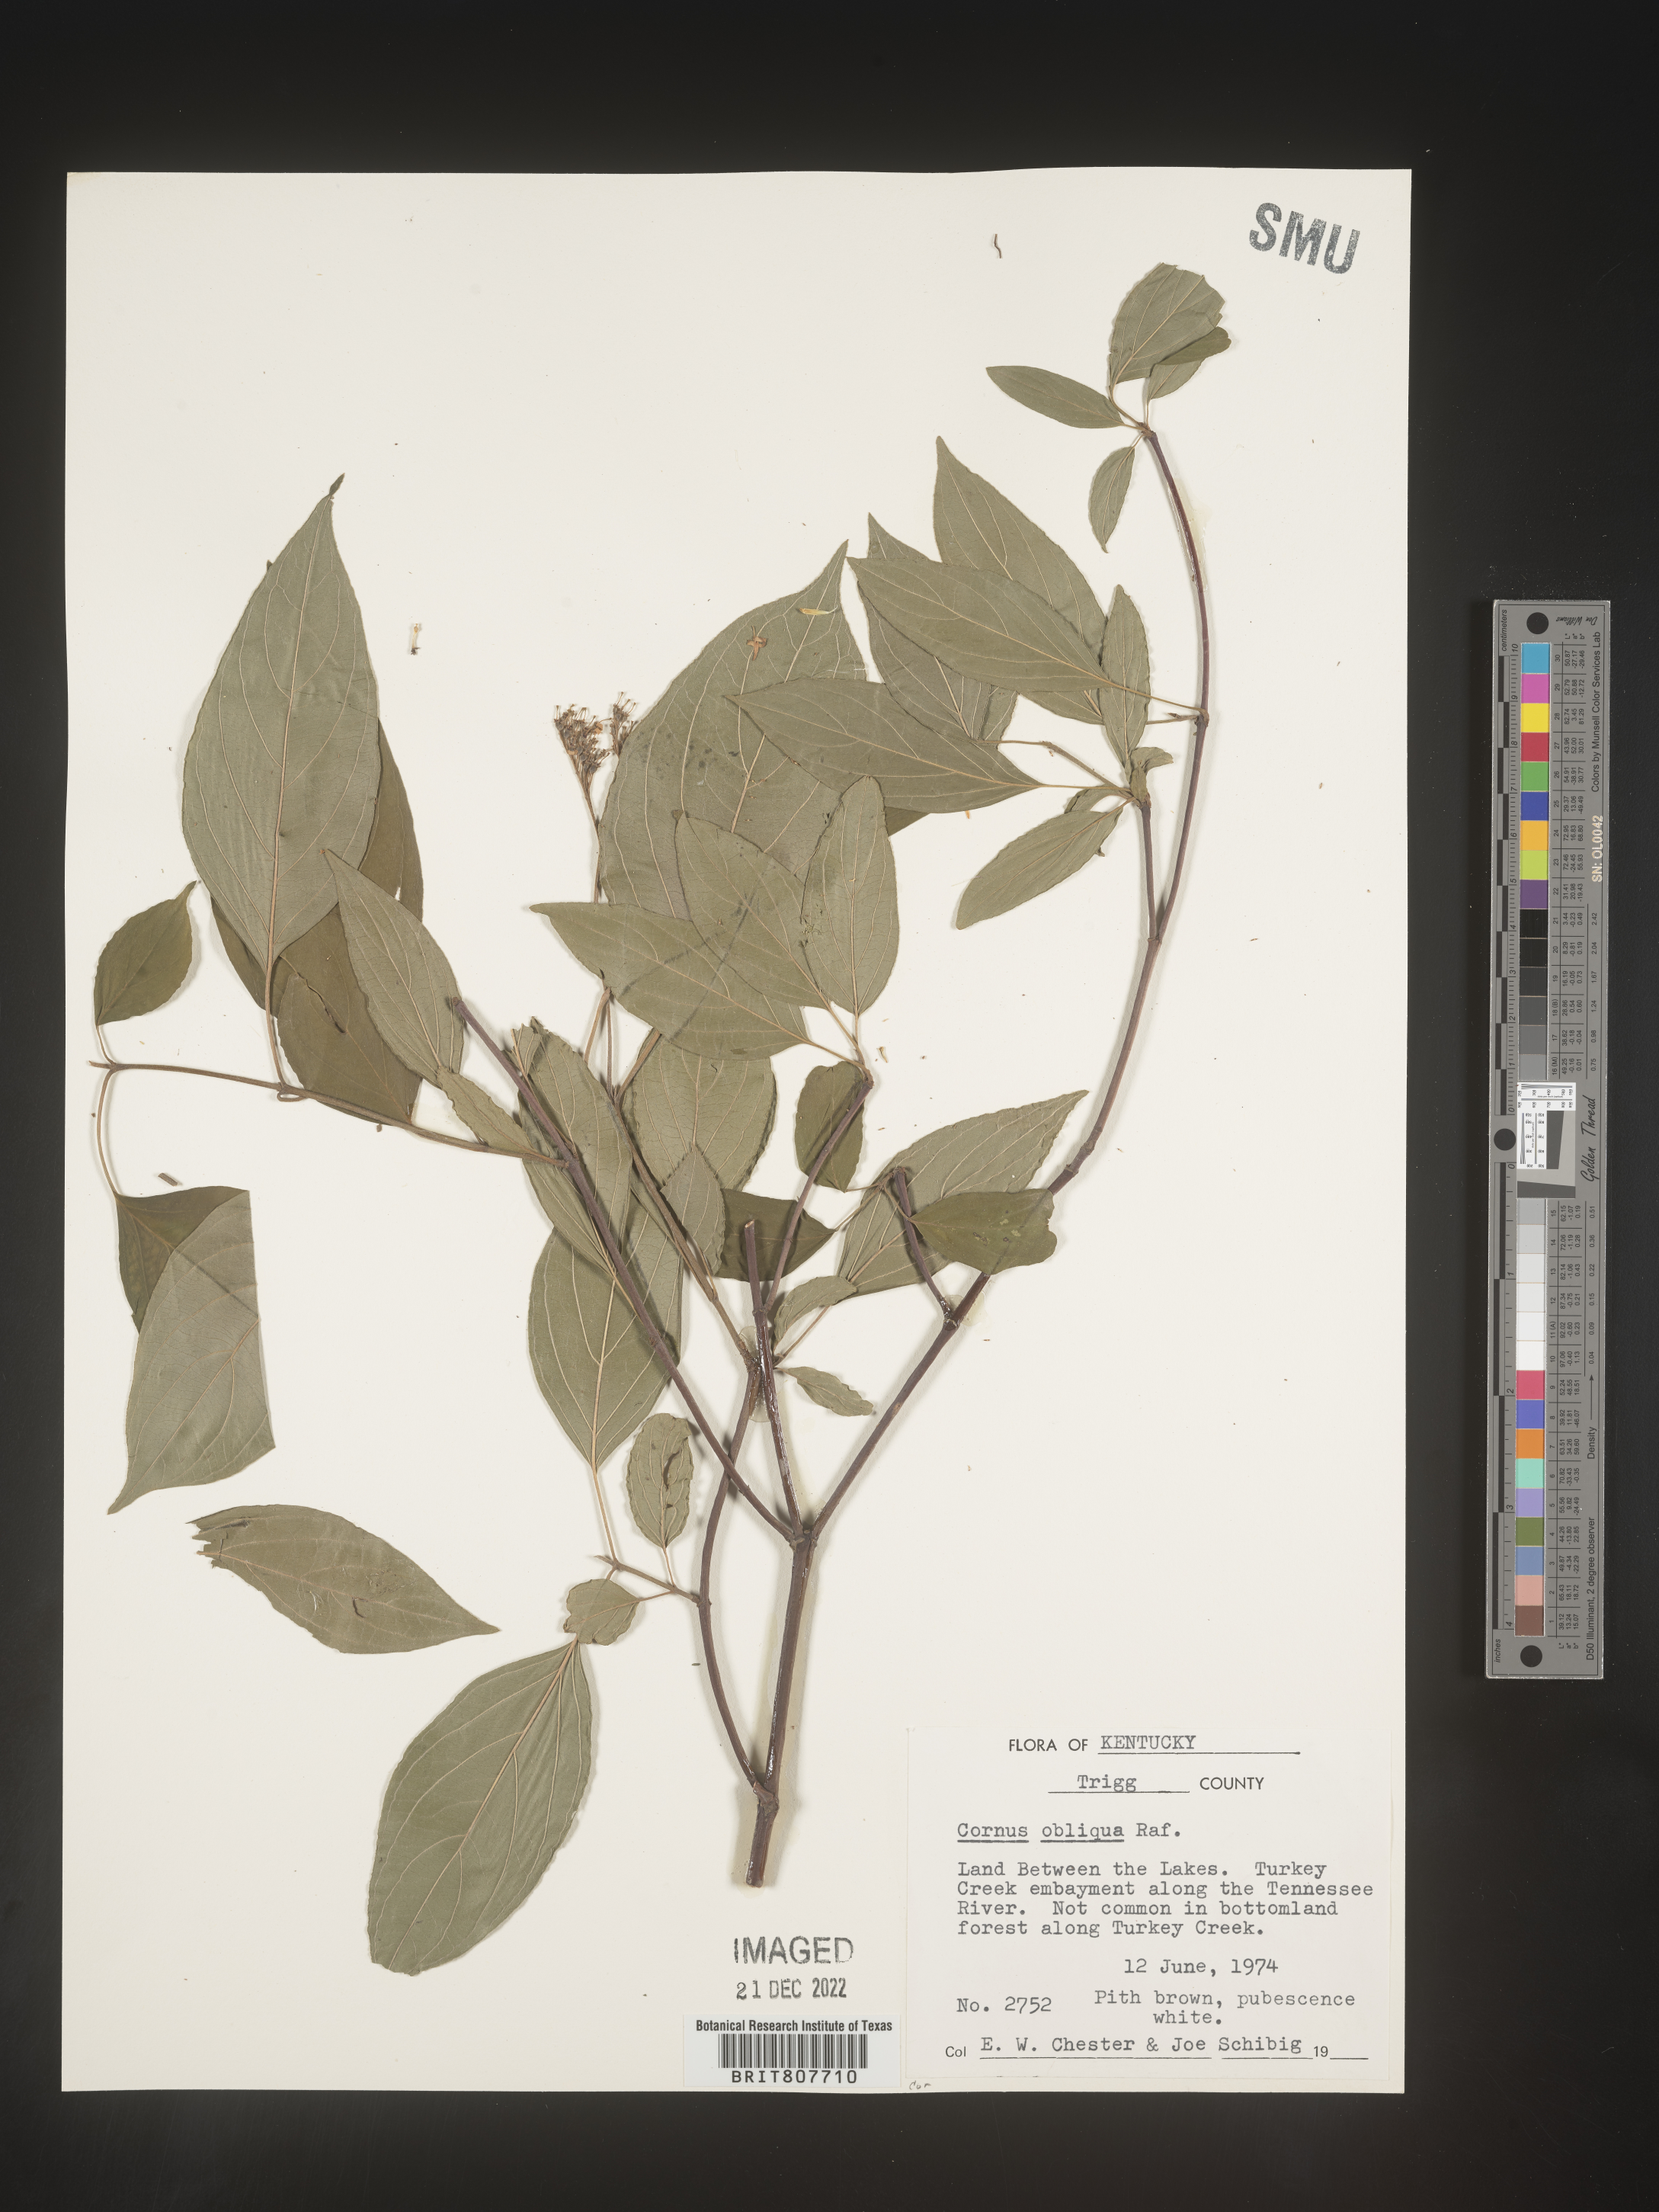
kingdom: Plantae
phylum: Tracheophyta
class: Magnoliopsida
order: Cornales
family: Cornaceae
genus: Cornus
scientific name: Cornus obliqua
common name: Pale dogwood
